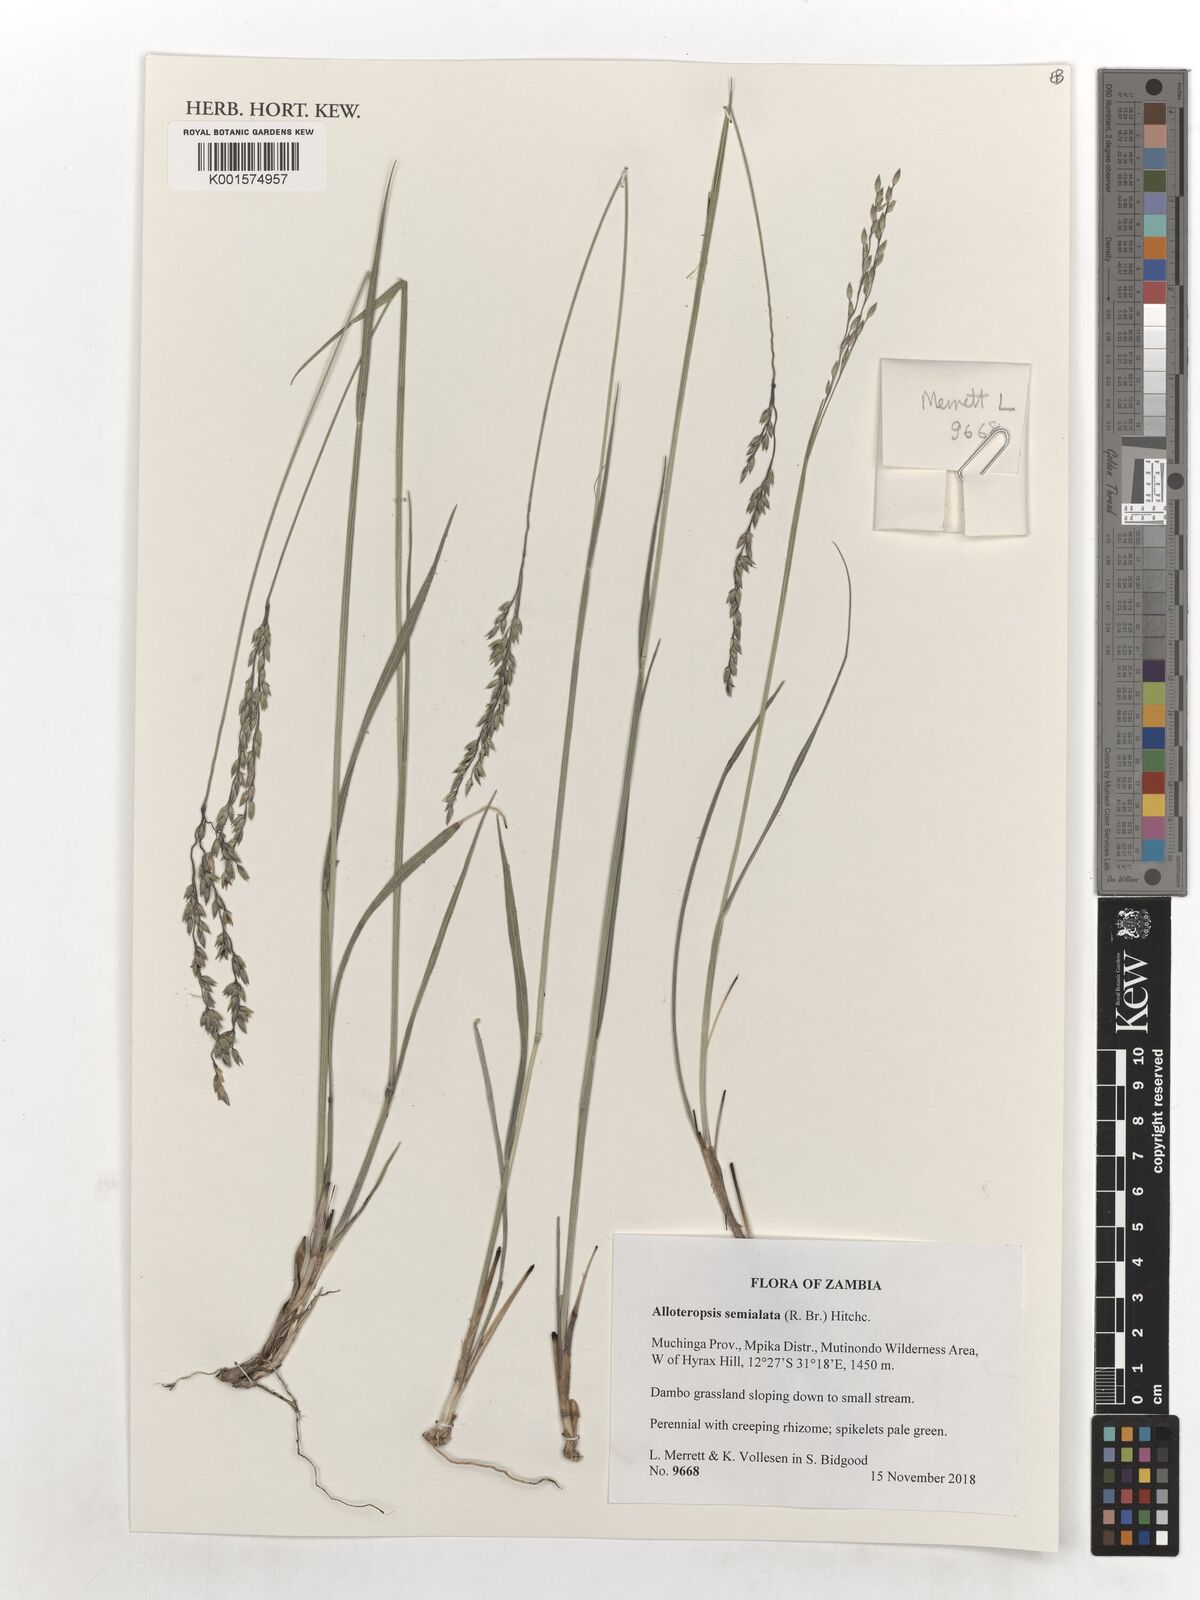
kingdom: Plantae
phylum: Tracheophyta
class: Liliopsida
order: Poales
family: Poaceae
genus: Alloteropsis
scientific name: Alloteropsis semialata
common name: Cockatoo grass
